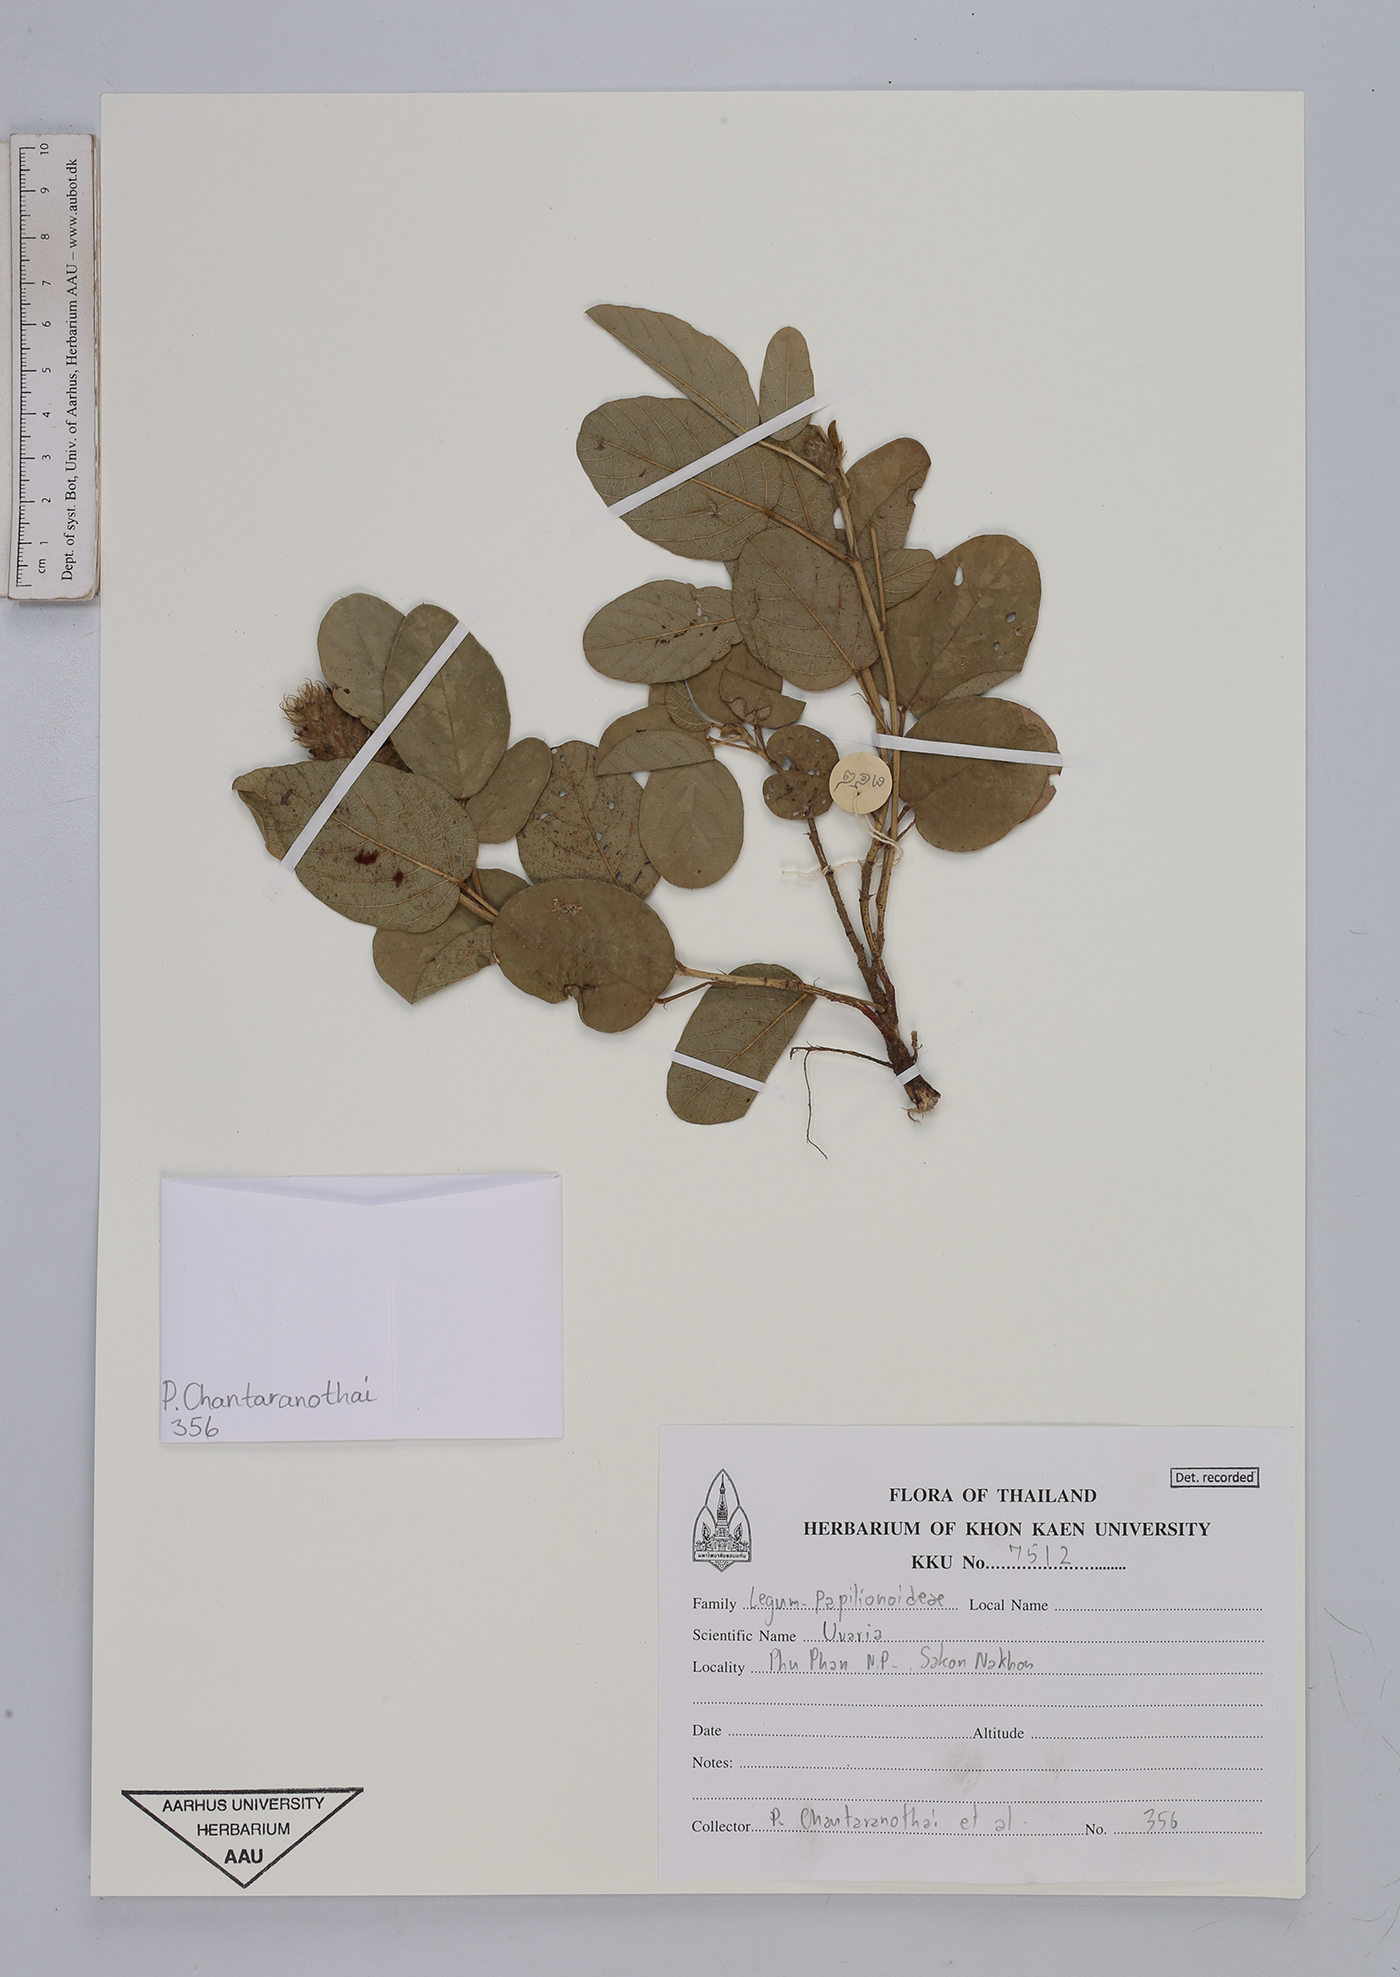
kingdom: Plantae
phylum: Tracheophyta
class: Magnoliopsida
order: Magnoliales
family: Annonaceae
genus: Uvaria
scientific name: Uvaria
